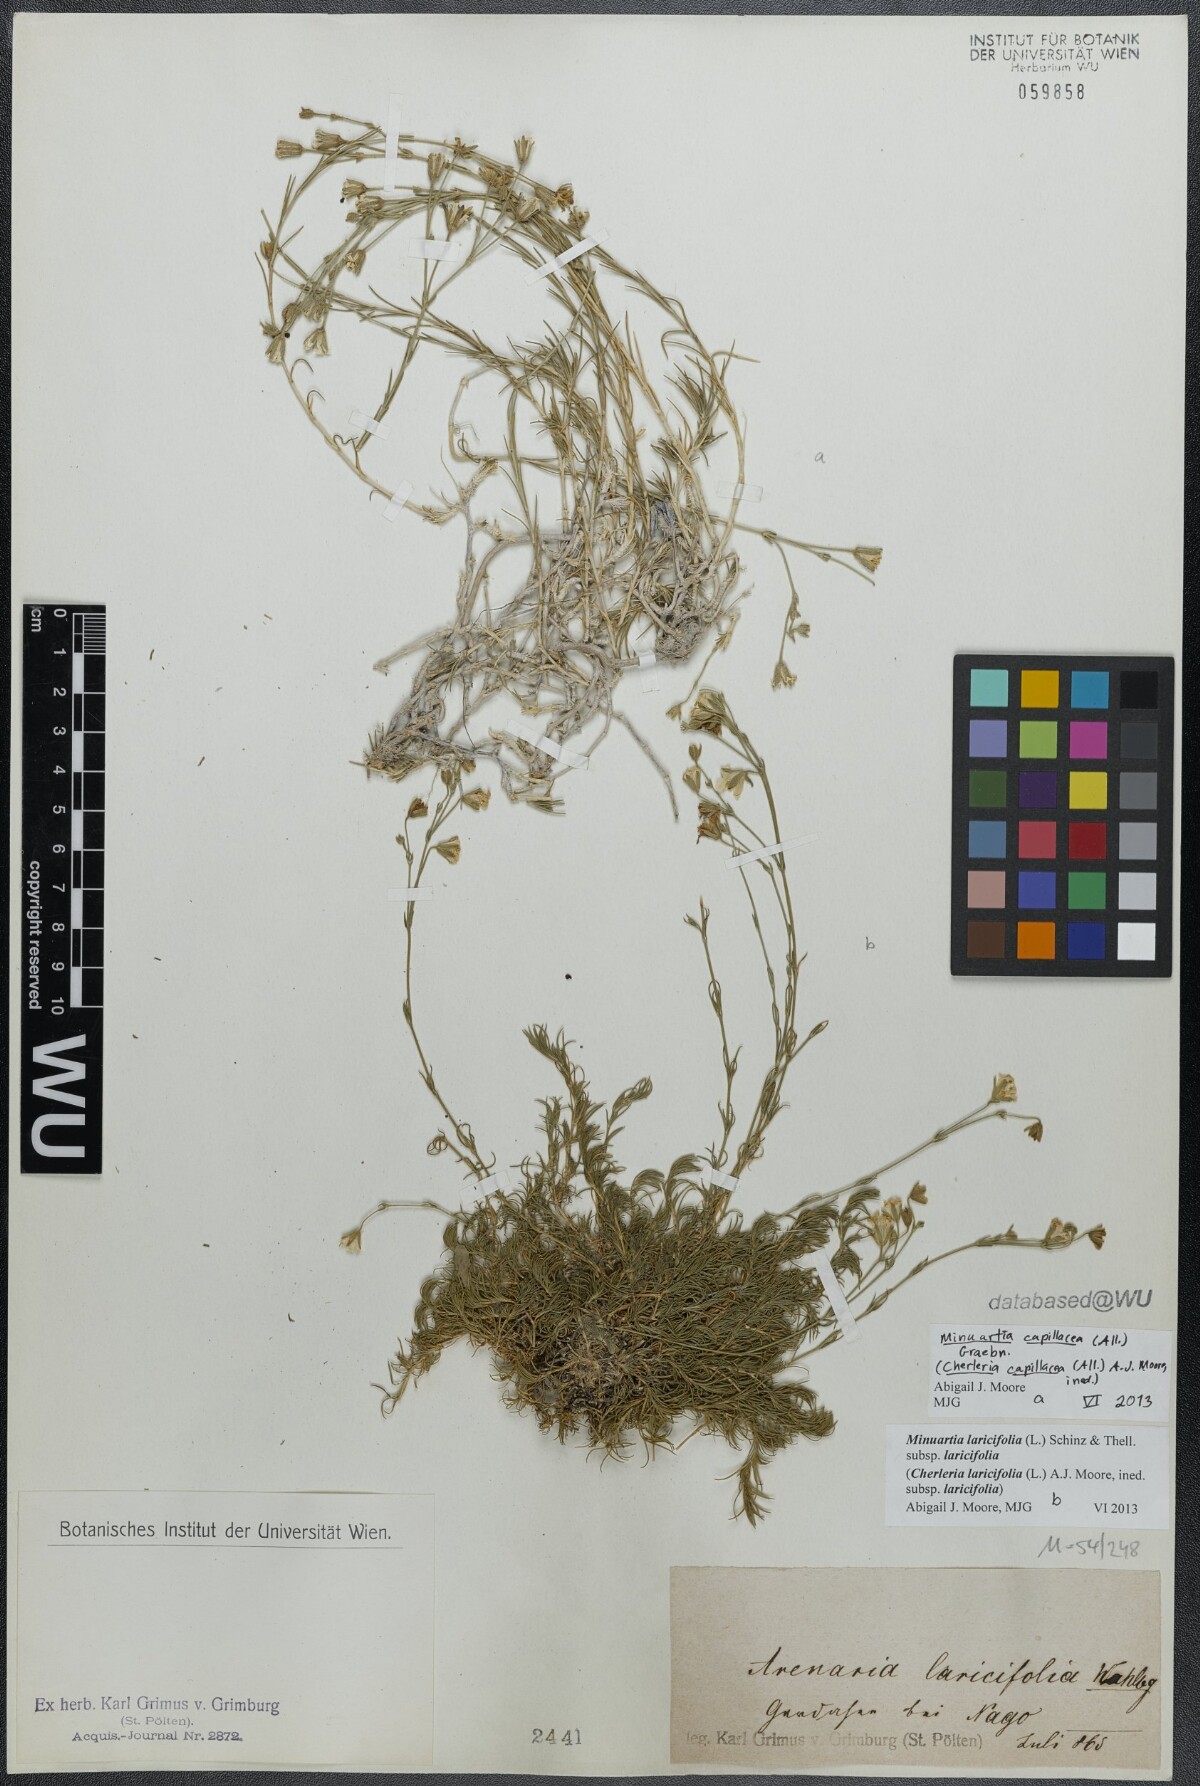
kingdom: Plantae
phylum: Tracheophyta
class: Magnoliopsida
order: Caryophyllales
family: Caryophyllaceae
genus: Cherleria
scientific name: Cherleria capillacea
